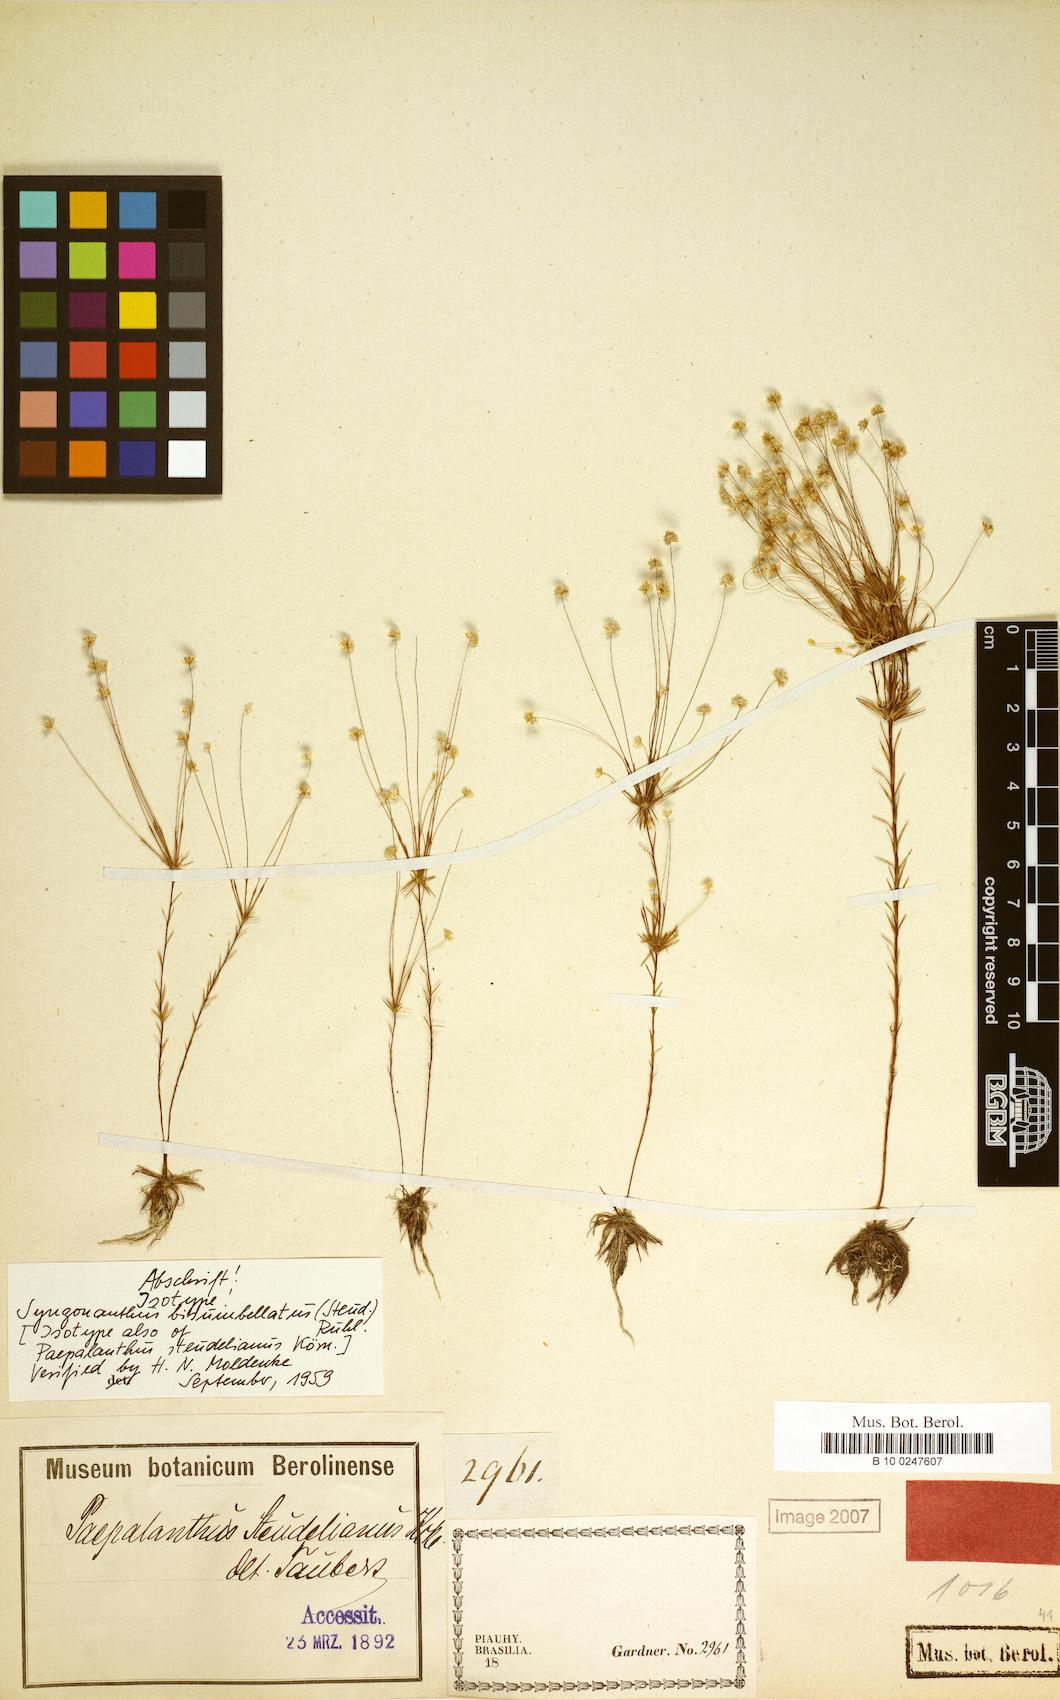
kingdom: Plantae
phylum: Tracheophyta
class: Liliopsida
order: Poales
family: Eriocaulaceae
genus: Syngonanthus
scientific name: Syngonanthus bisumbellatus
